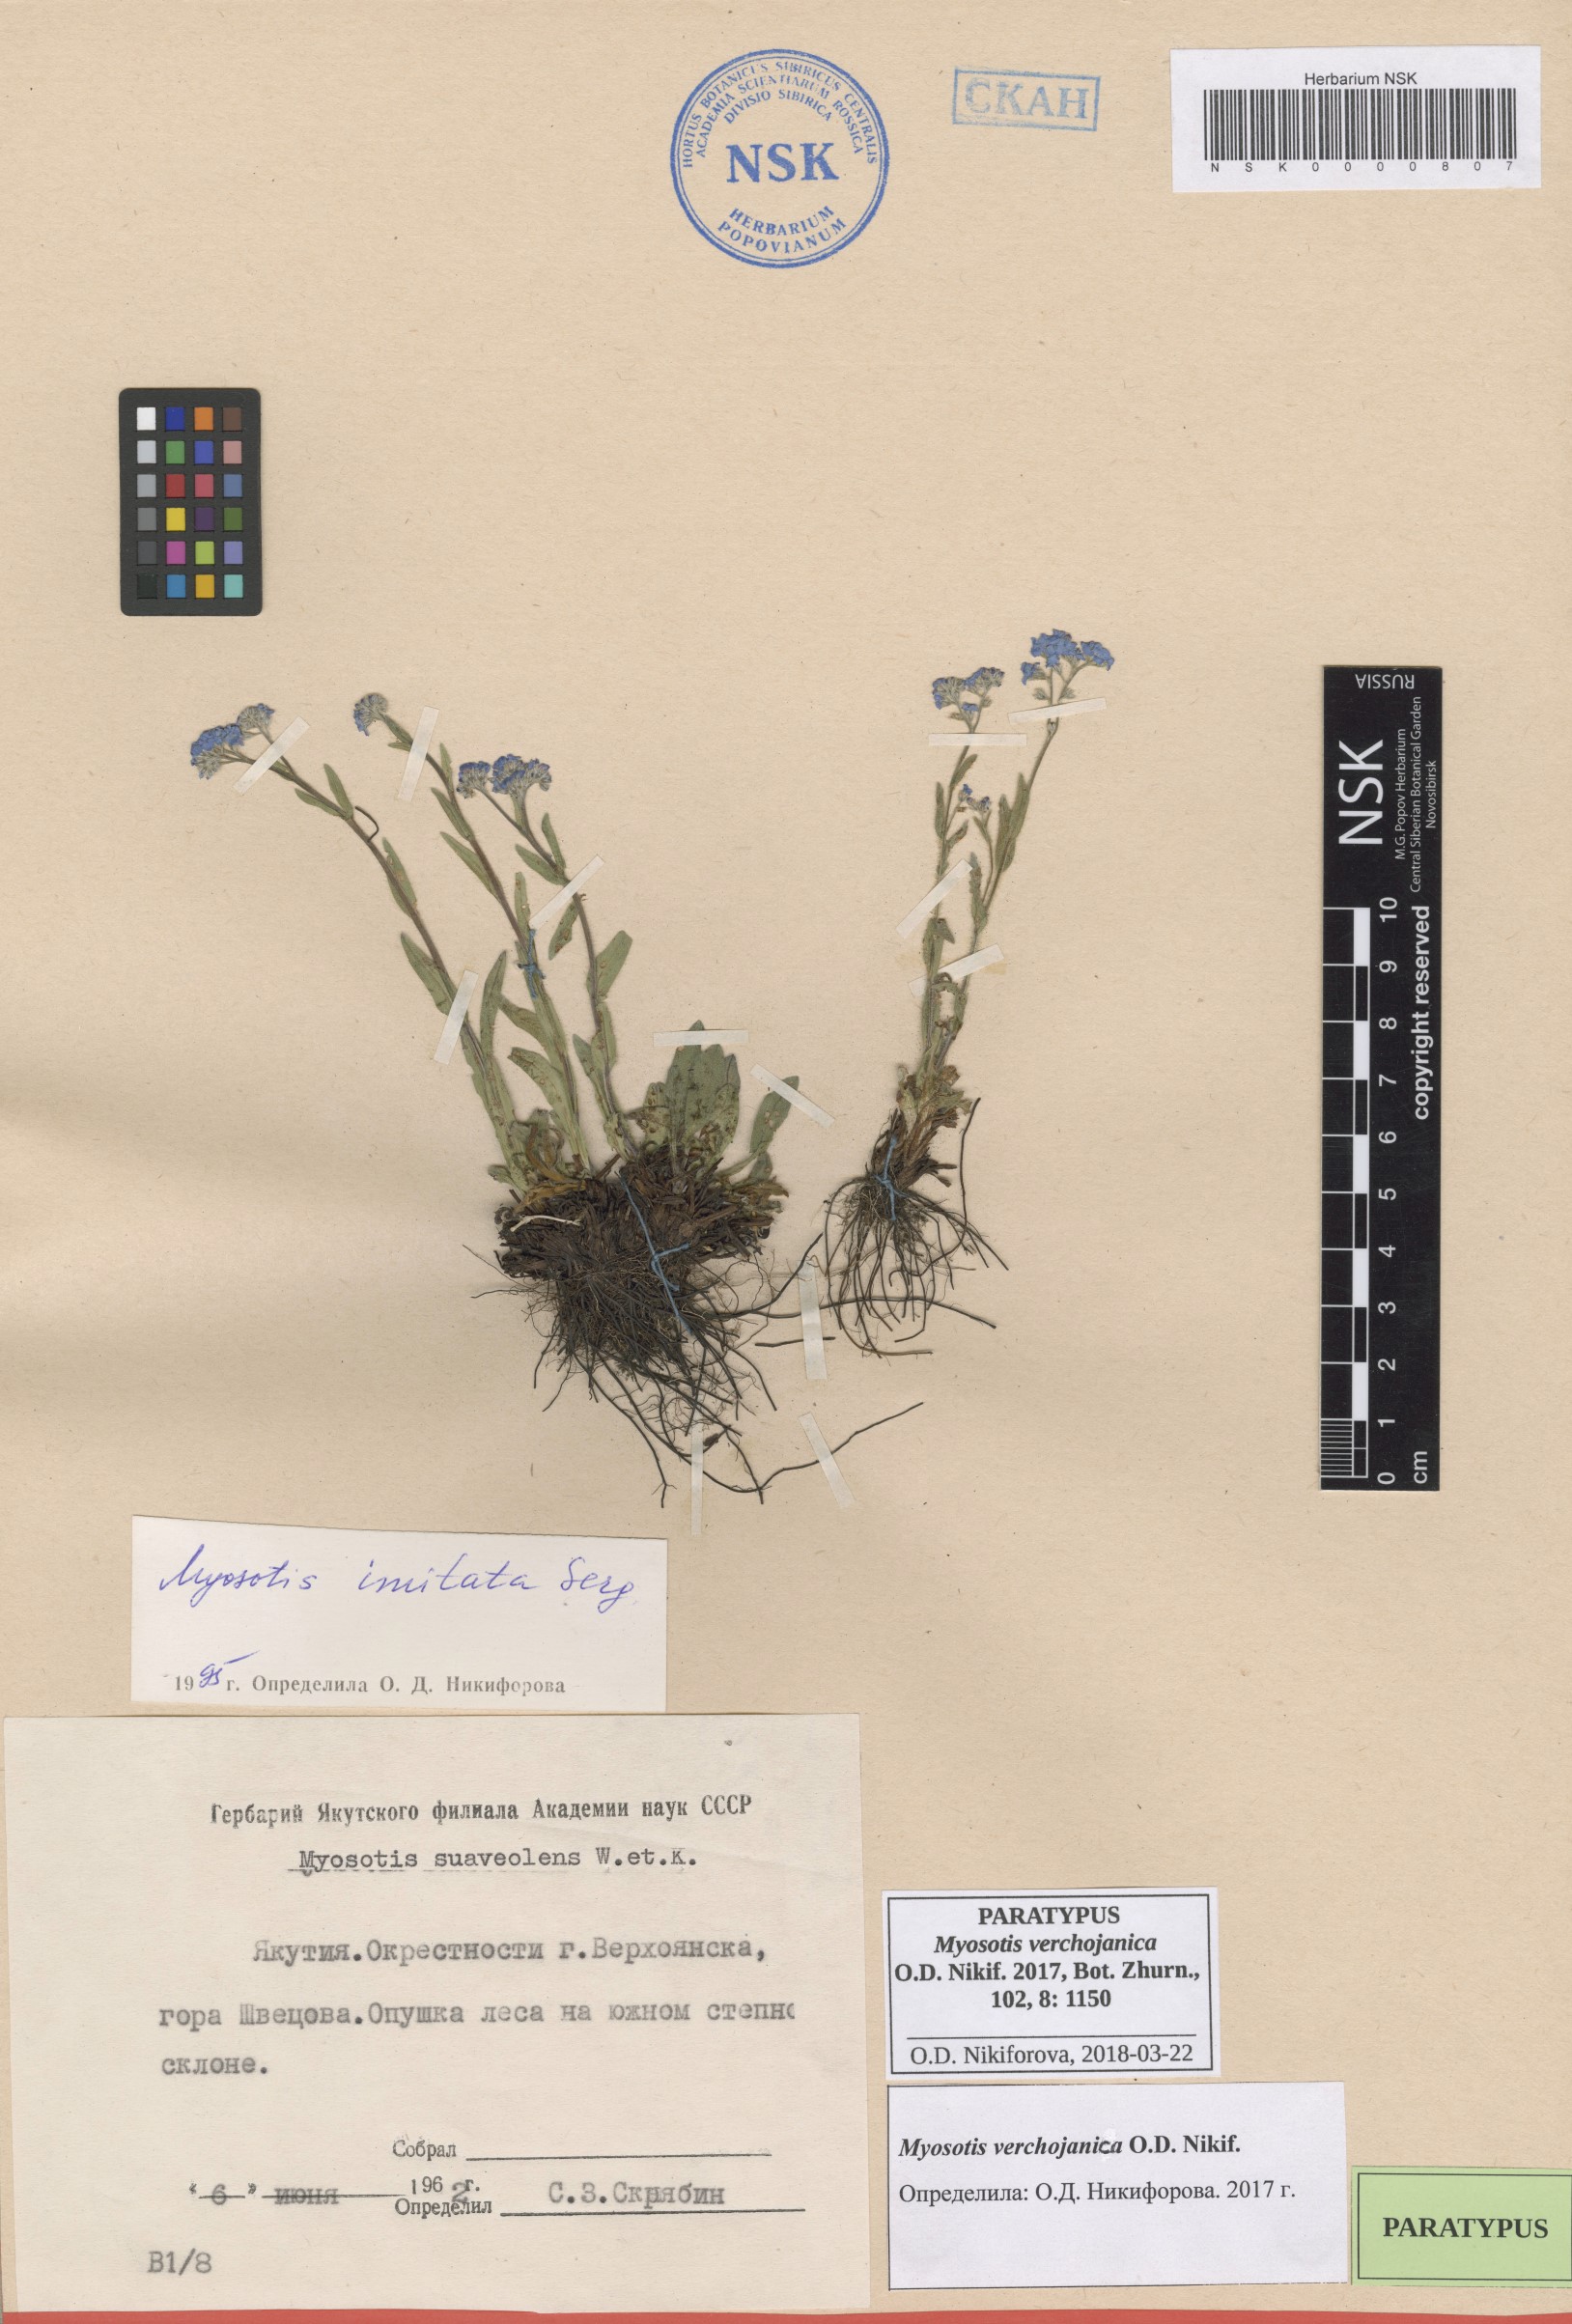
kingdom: Plantae
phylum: Tracheophyta
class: Magnoliopsida
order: Boraginales
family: Boraginaceae
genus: Myosotis
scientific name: Myosotis
